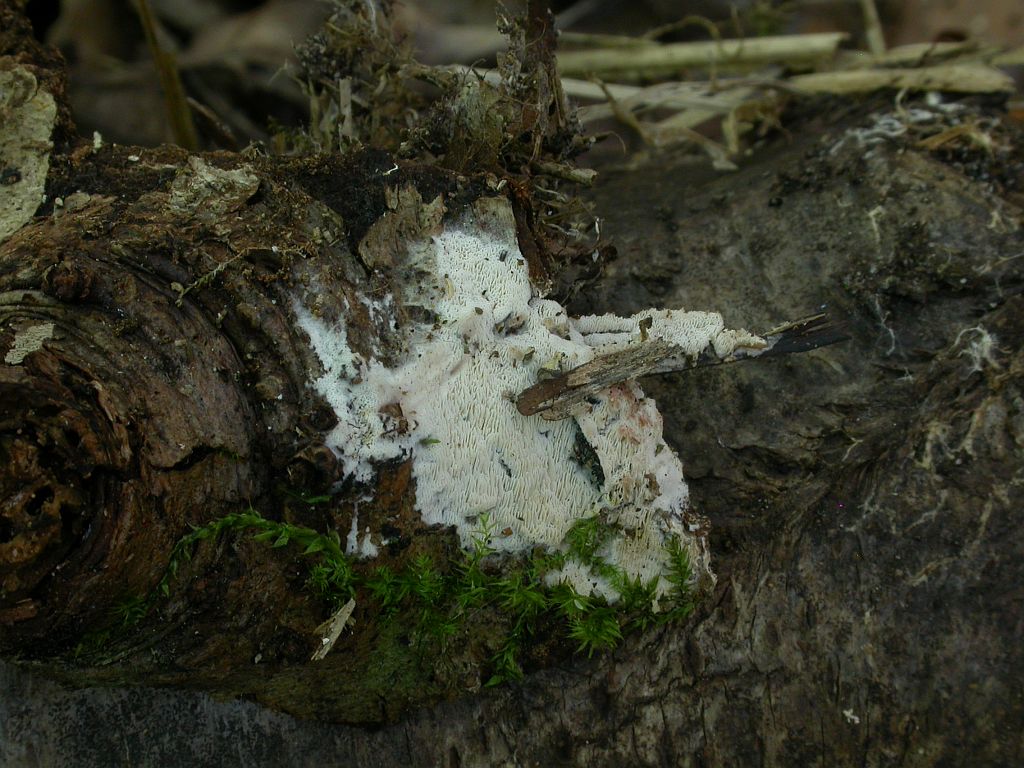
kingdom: Fungi
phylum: Basidiomycota
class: Agaricomycetes
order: Polyporales
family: Meripilaceae
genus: Rigidoporus
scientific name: Rigidoporus sanguinolentus
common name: blod-skorpeporesvamp
